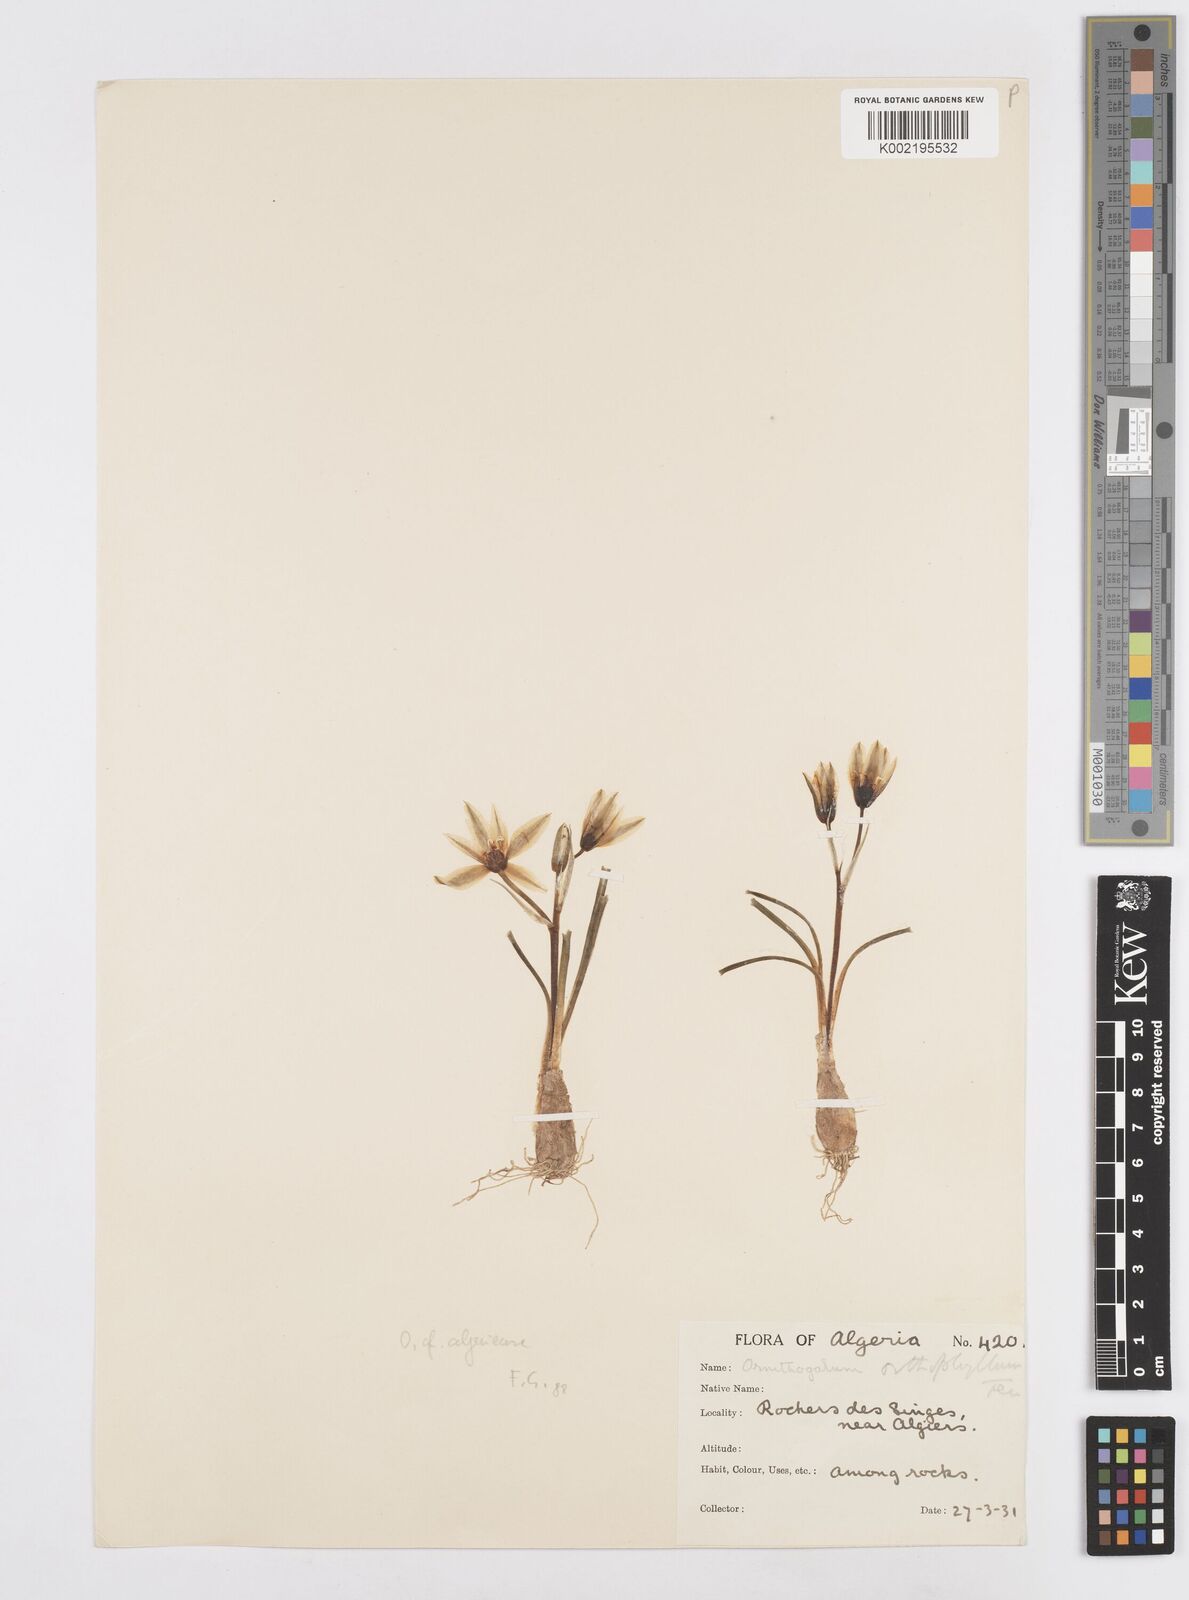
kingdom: Plantae
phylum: Tracheophyta
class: Liliopsida
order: Asparagales
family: Asparagaceae
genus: Ornithogalum
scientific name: Ornithogalum baeticum
